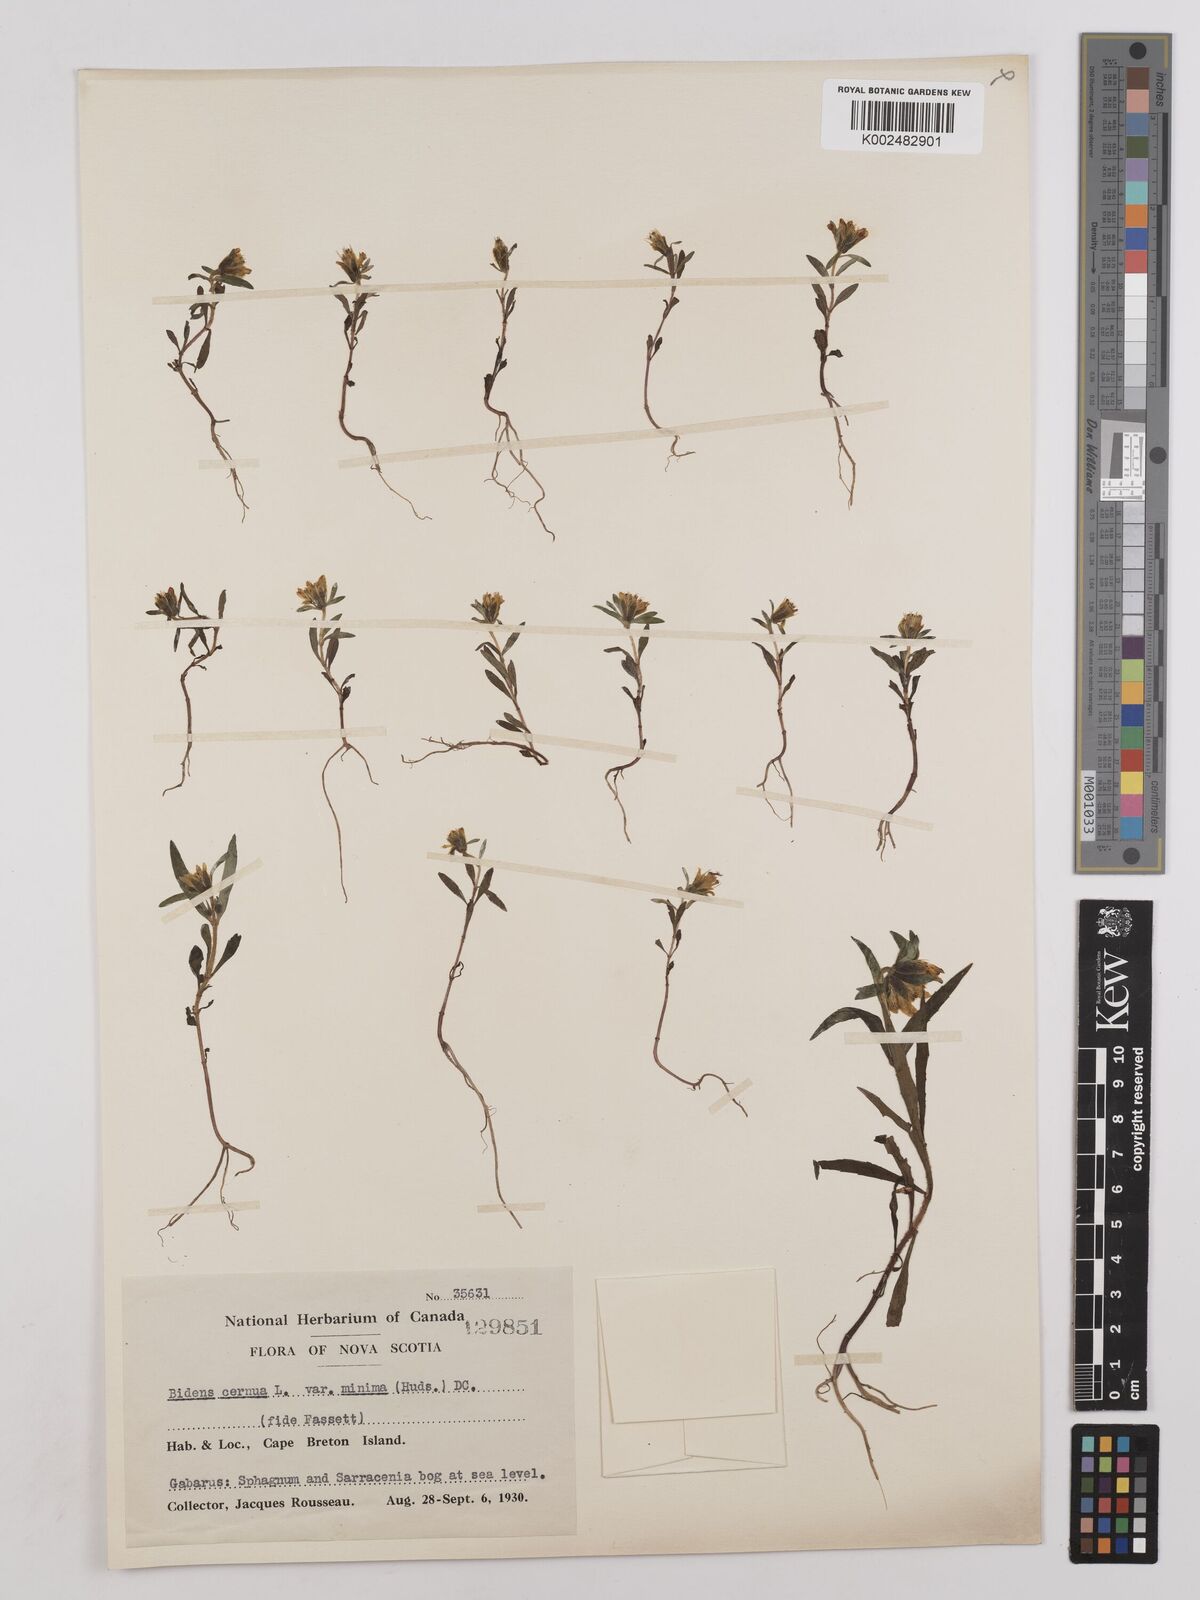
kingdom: Plantae
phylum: Tracheophyta
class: Magnoliopsida
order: Asterales
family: Asteraceae
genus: Bidens
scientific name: Bidens cernua
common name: Nodding bur-marigold
